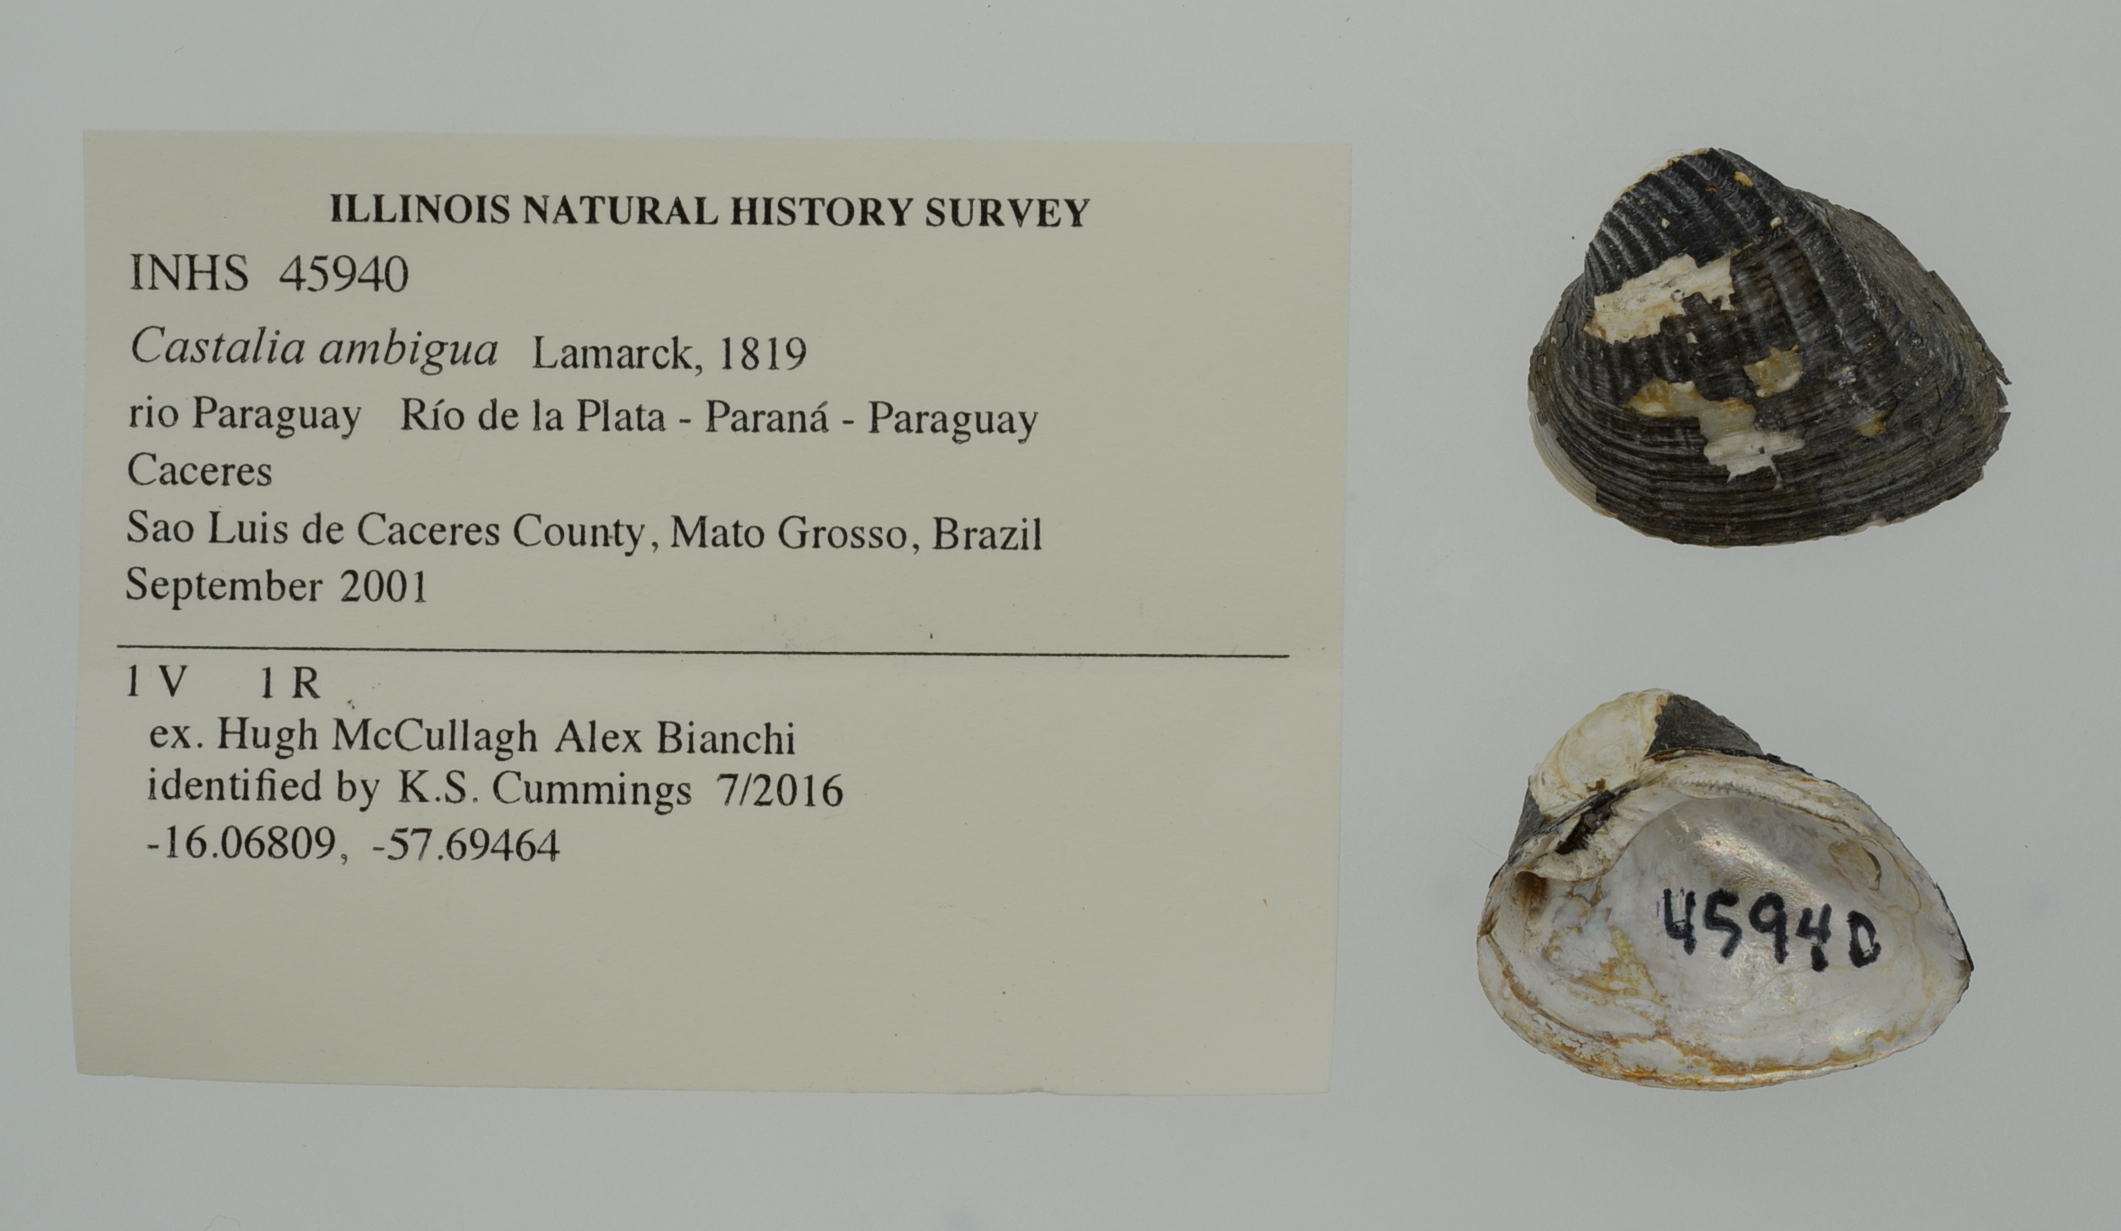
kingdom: Animalia
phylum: Mollusca
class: Gastropoda
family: Pleuroceridae
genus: Pleurocera
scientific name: Pleurocera acuta
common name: Sharp hornsnail
